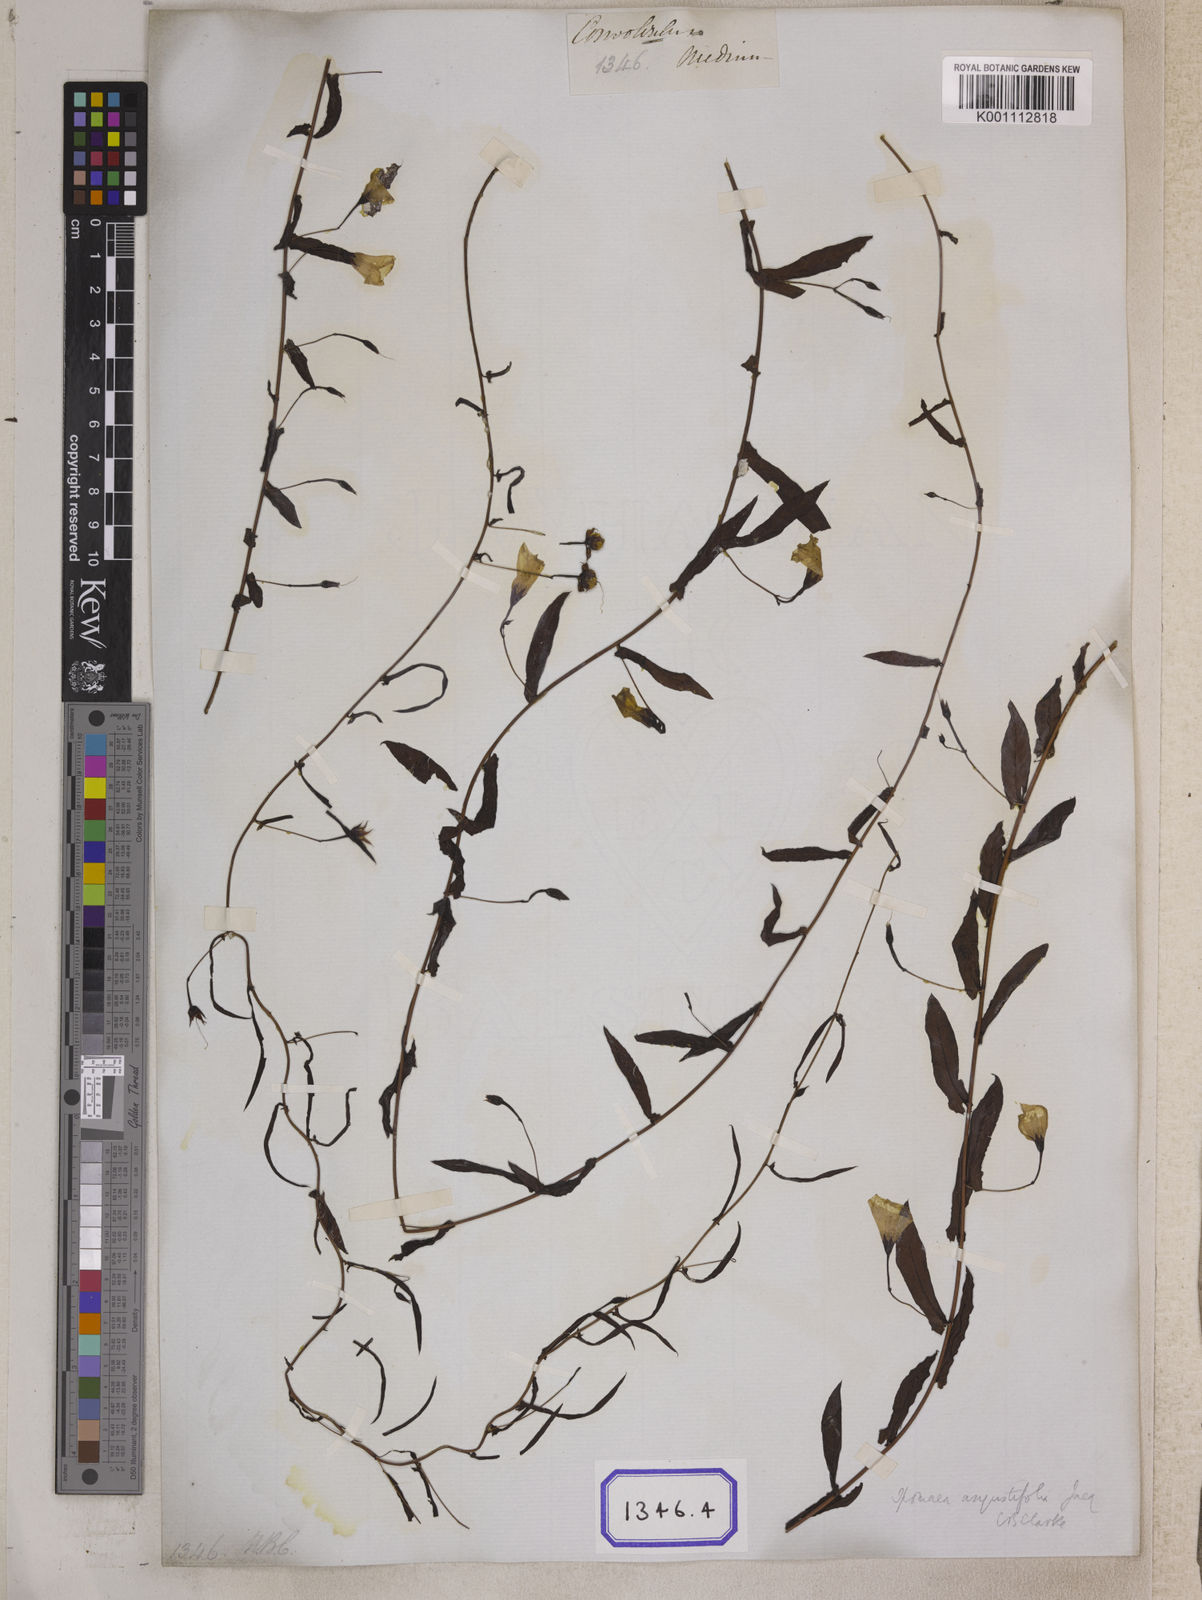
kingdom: Plantae
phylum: Tracheophyta
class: Magnoliopsida
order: Solanales
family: Convolvulaceae
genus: Xenostegia
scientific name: Xenostegia medium
